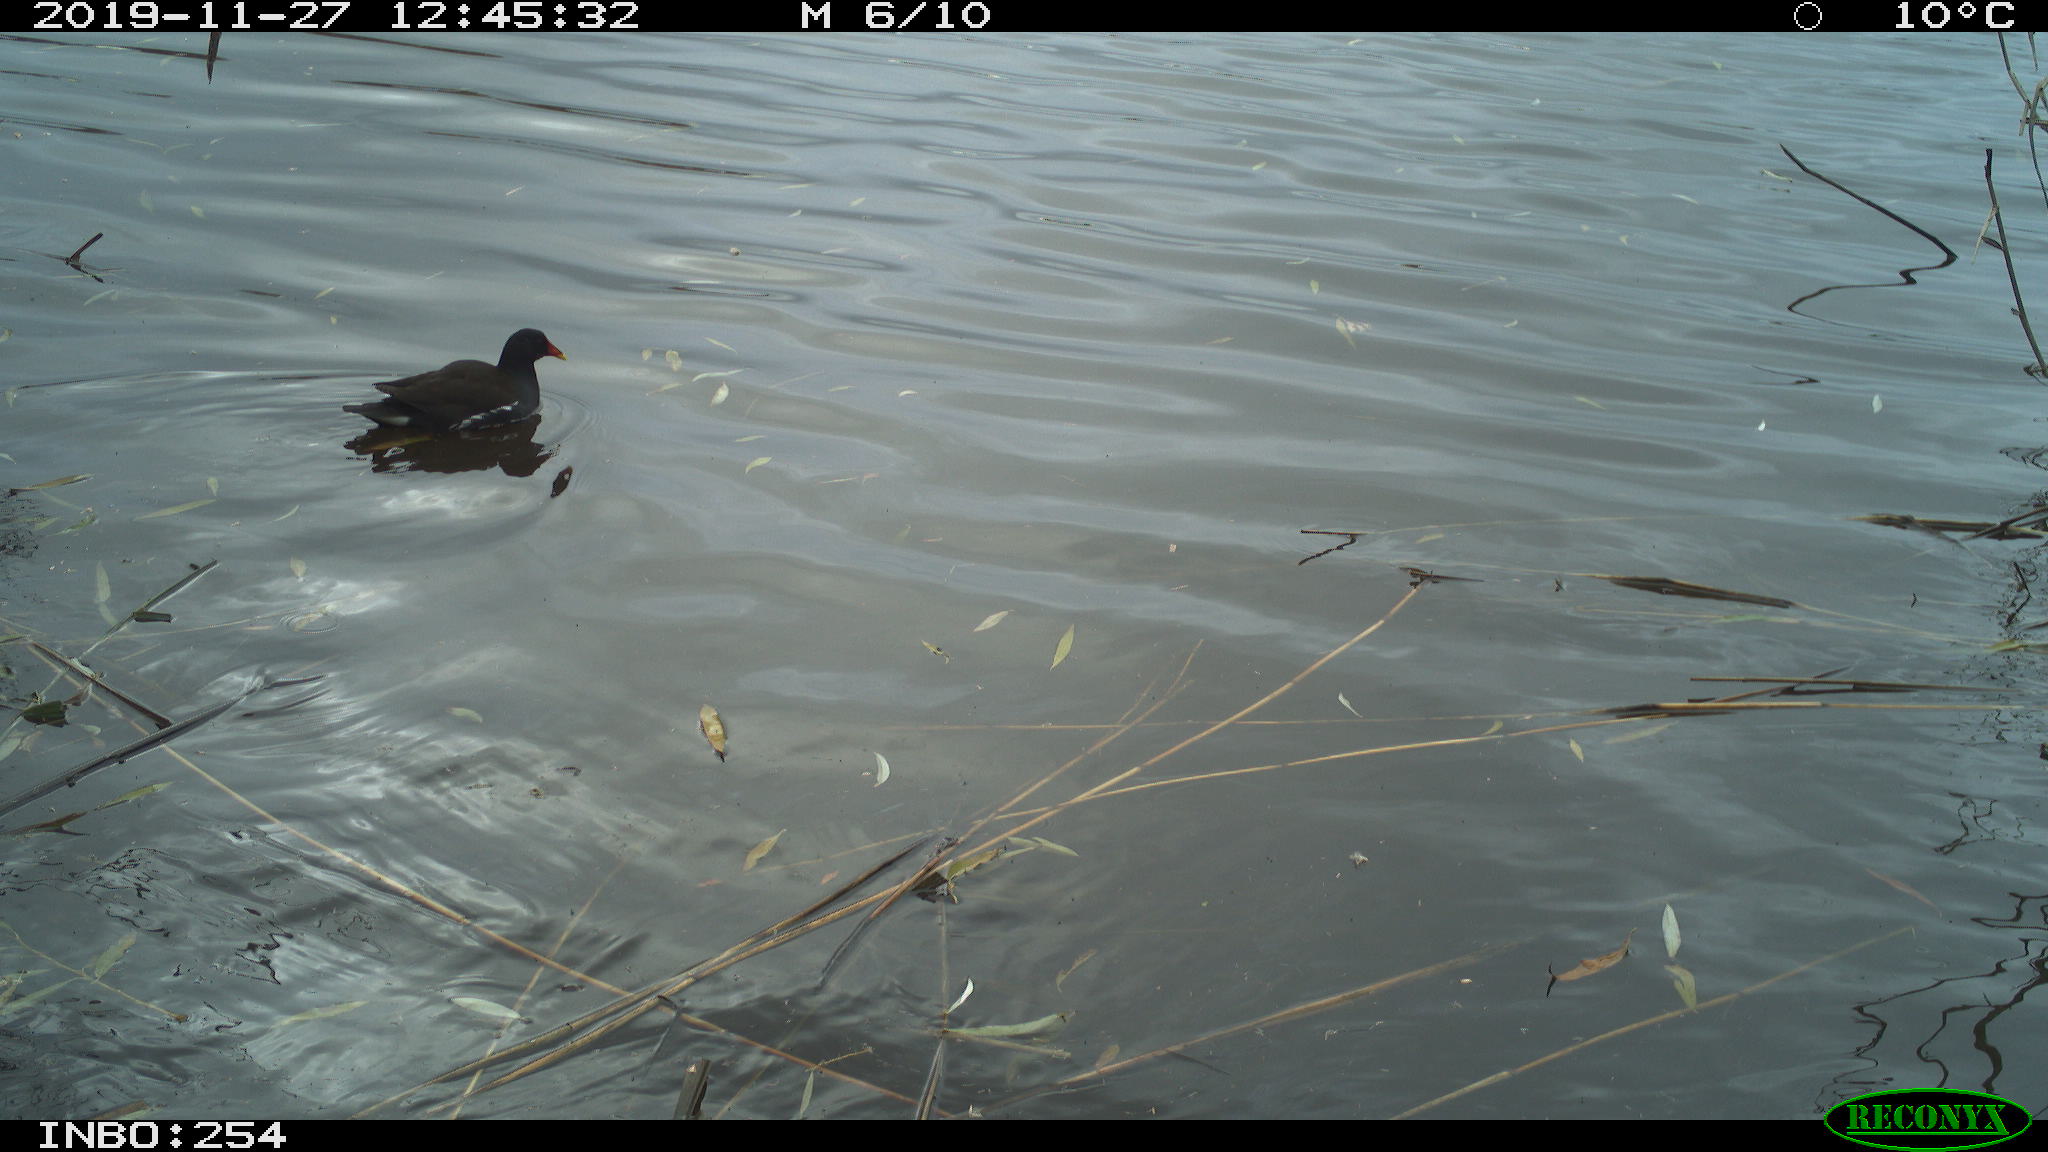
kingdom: Animalia
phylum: Chordata
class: Aves
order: Gruiformes
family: Rallidae
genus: Gallinula
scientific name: Gallinula chloropus
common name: Common moorhen
